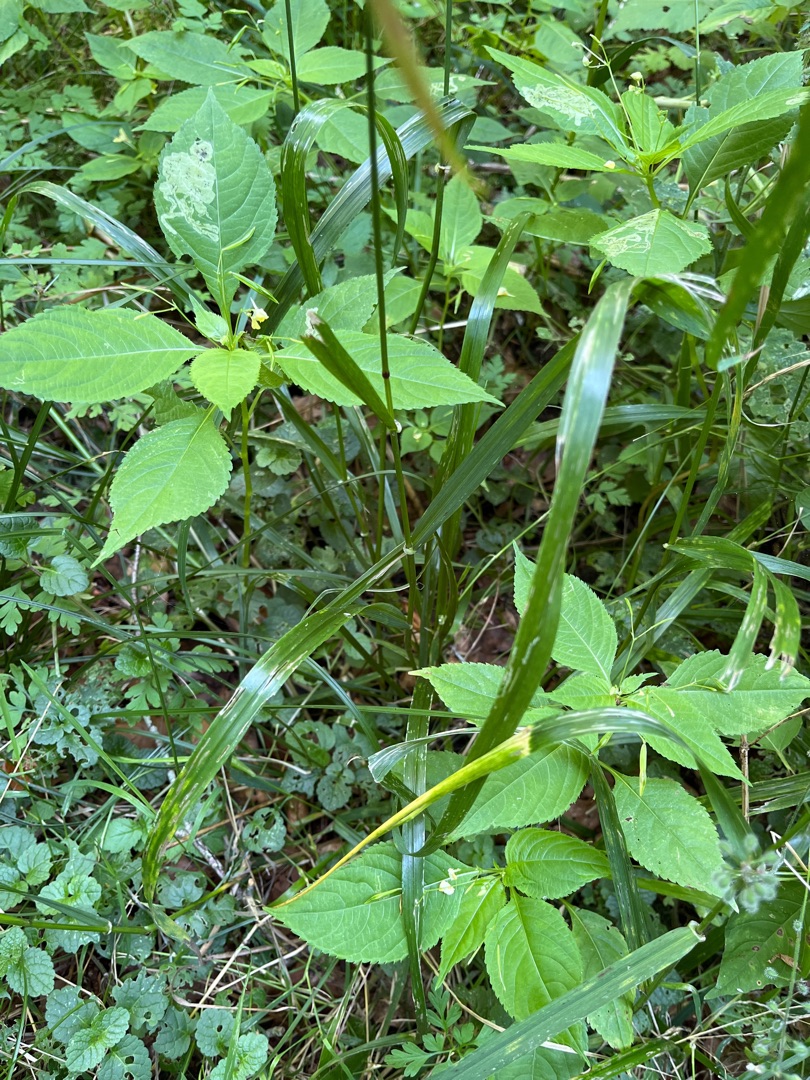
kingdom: Plantae
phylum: Tracheophyta
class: Liliopsida
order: Poales
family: Poaceae
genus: Lolium
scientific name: Lolium giganteum
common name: Kæmpe-svingel
